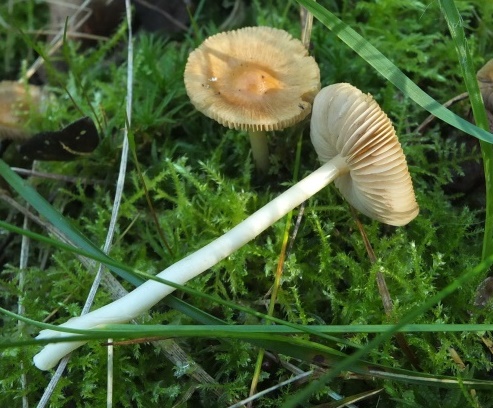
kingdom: Fungi
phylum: Basidiomycota
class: Agaricomycetes
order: Agaricales
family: Inocybaceae
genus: Inocybe
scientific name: Inocybe mixtilis
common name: randknoldet trævlhat
